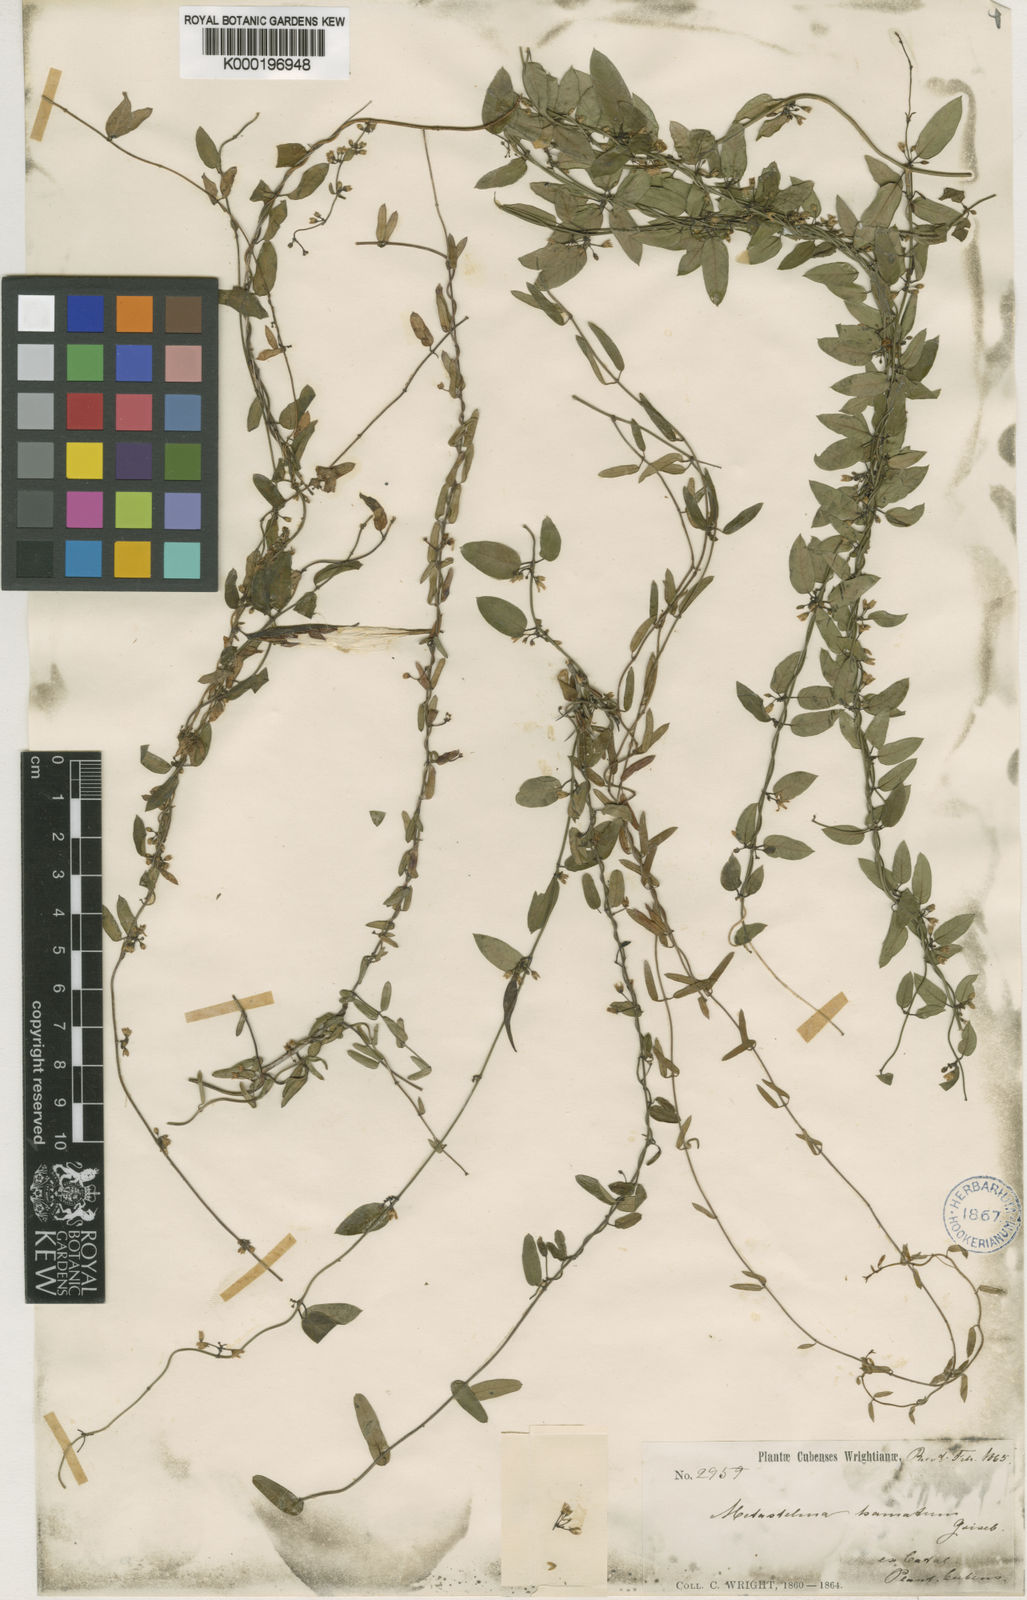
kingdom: Plantae
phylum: Tracheophyta
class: Magnoliopsida
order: Gentianales
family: Apocynaceae
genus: Metastelma
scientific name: Metastelma hamatum
